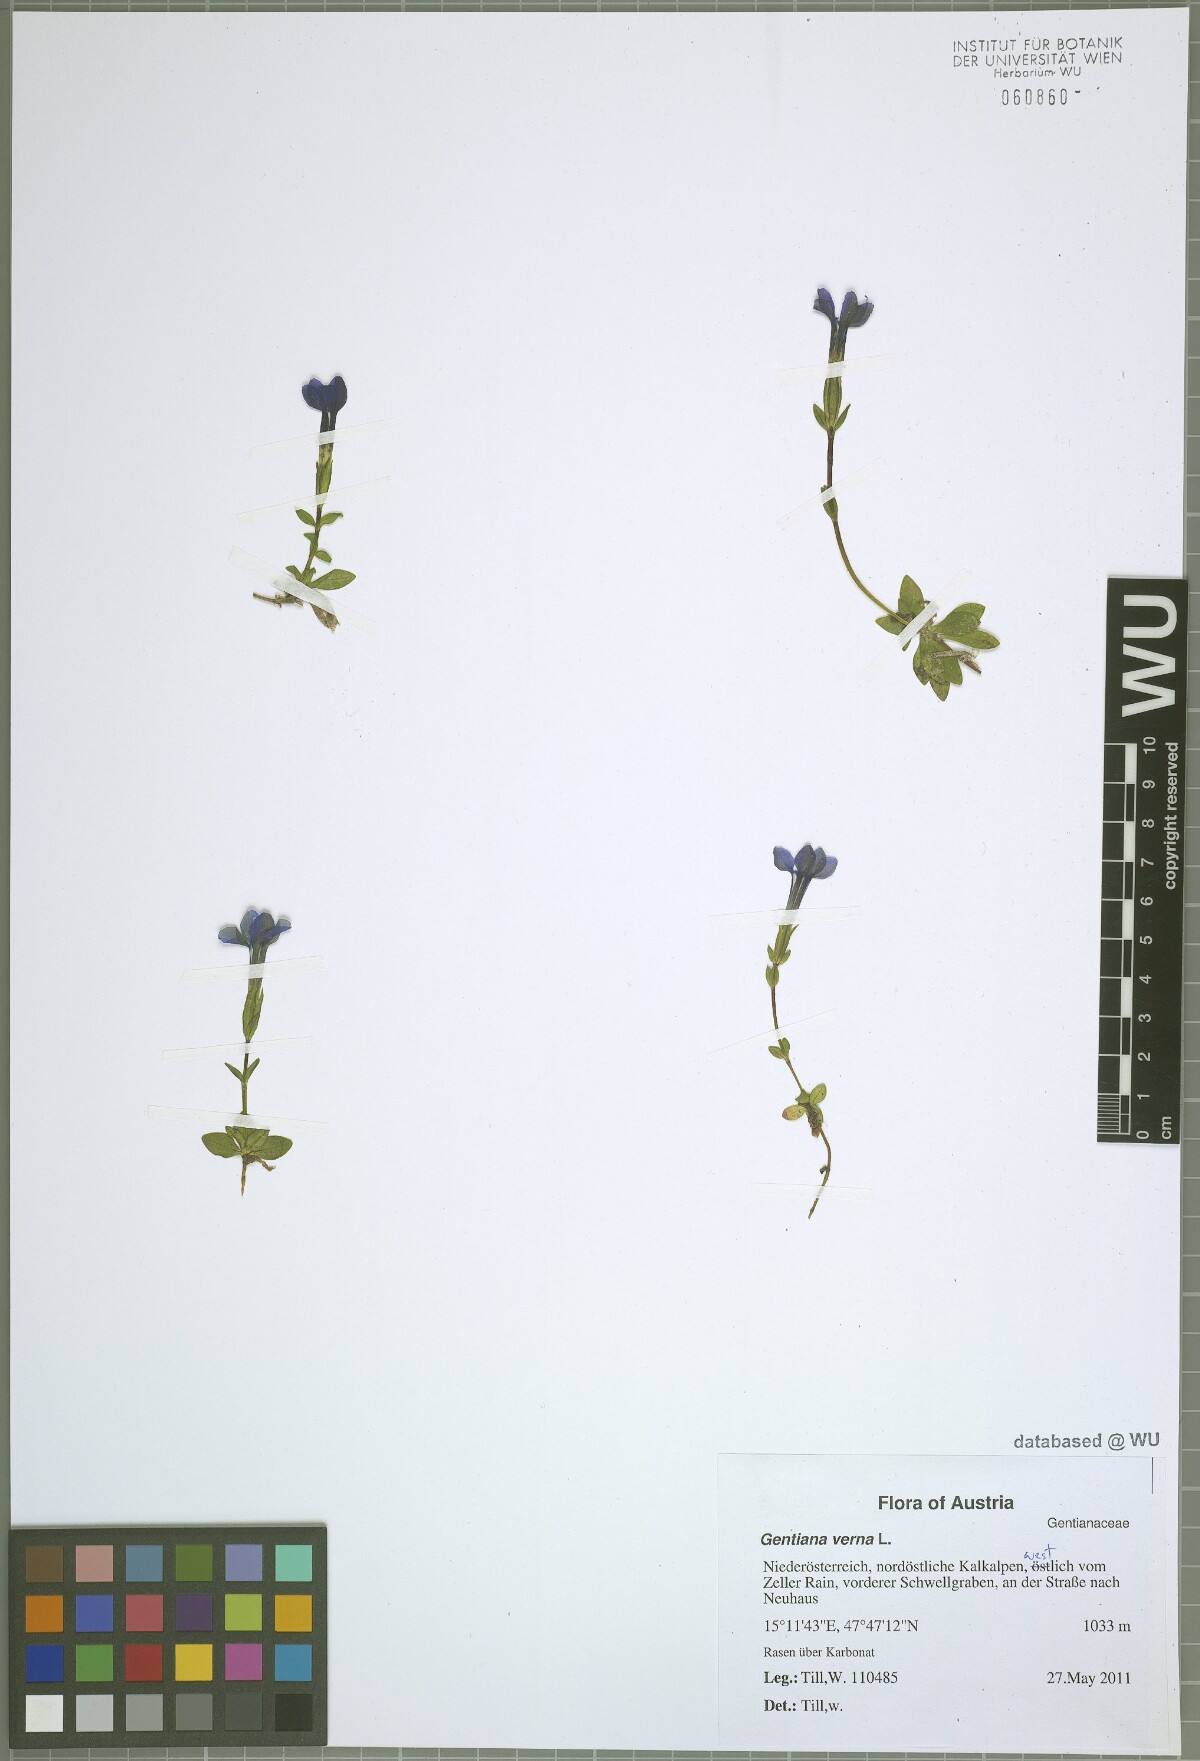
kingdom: Plantae
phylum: Tracheophyta
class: Magnoliopsida
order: Gentianales
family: Gentianaceae
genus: Gentiana
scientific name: Gentiana verna
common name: Spring gentian
